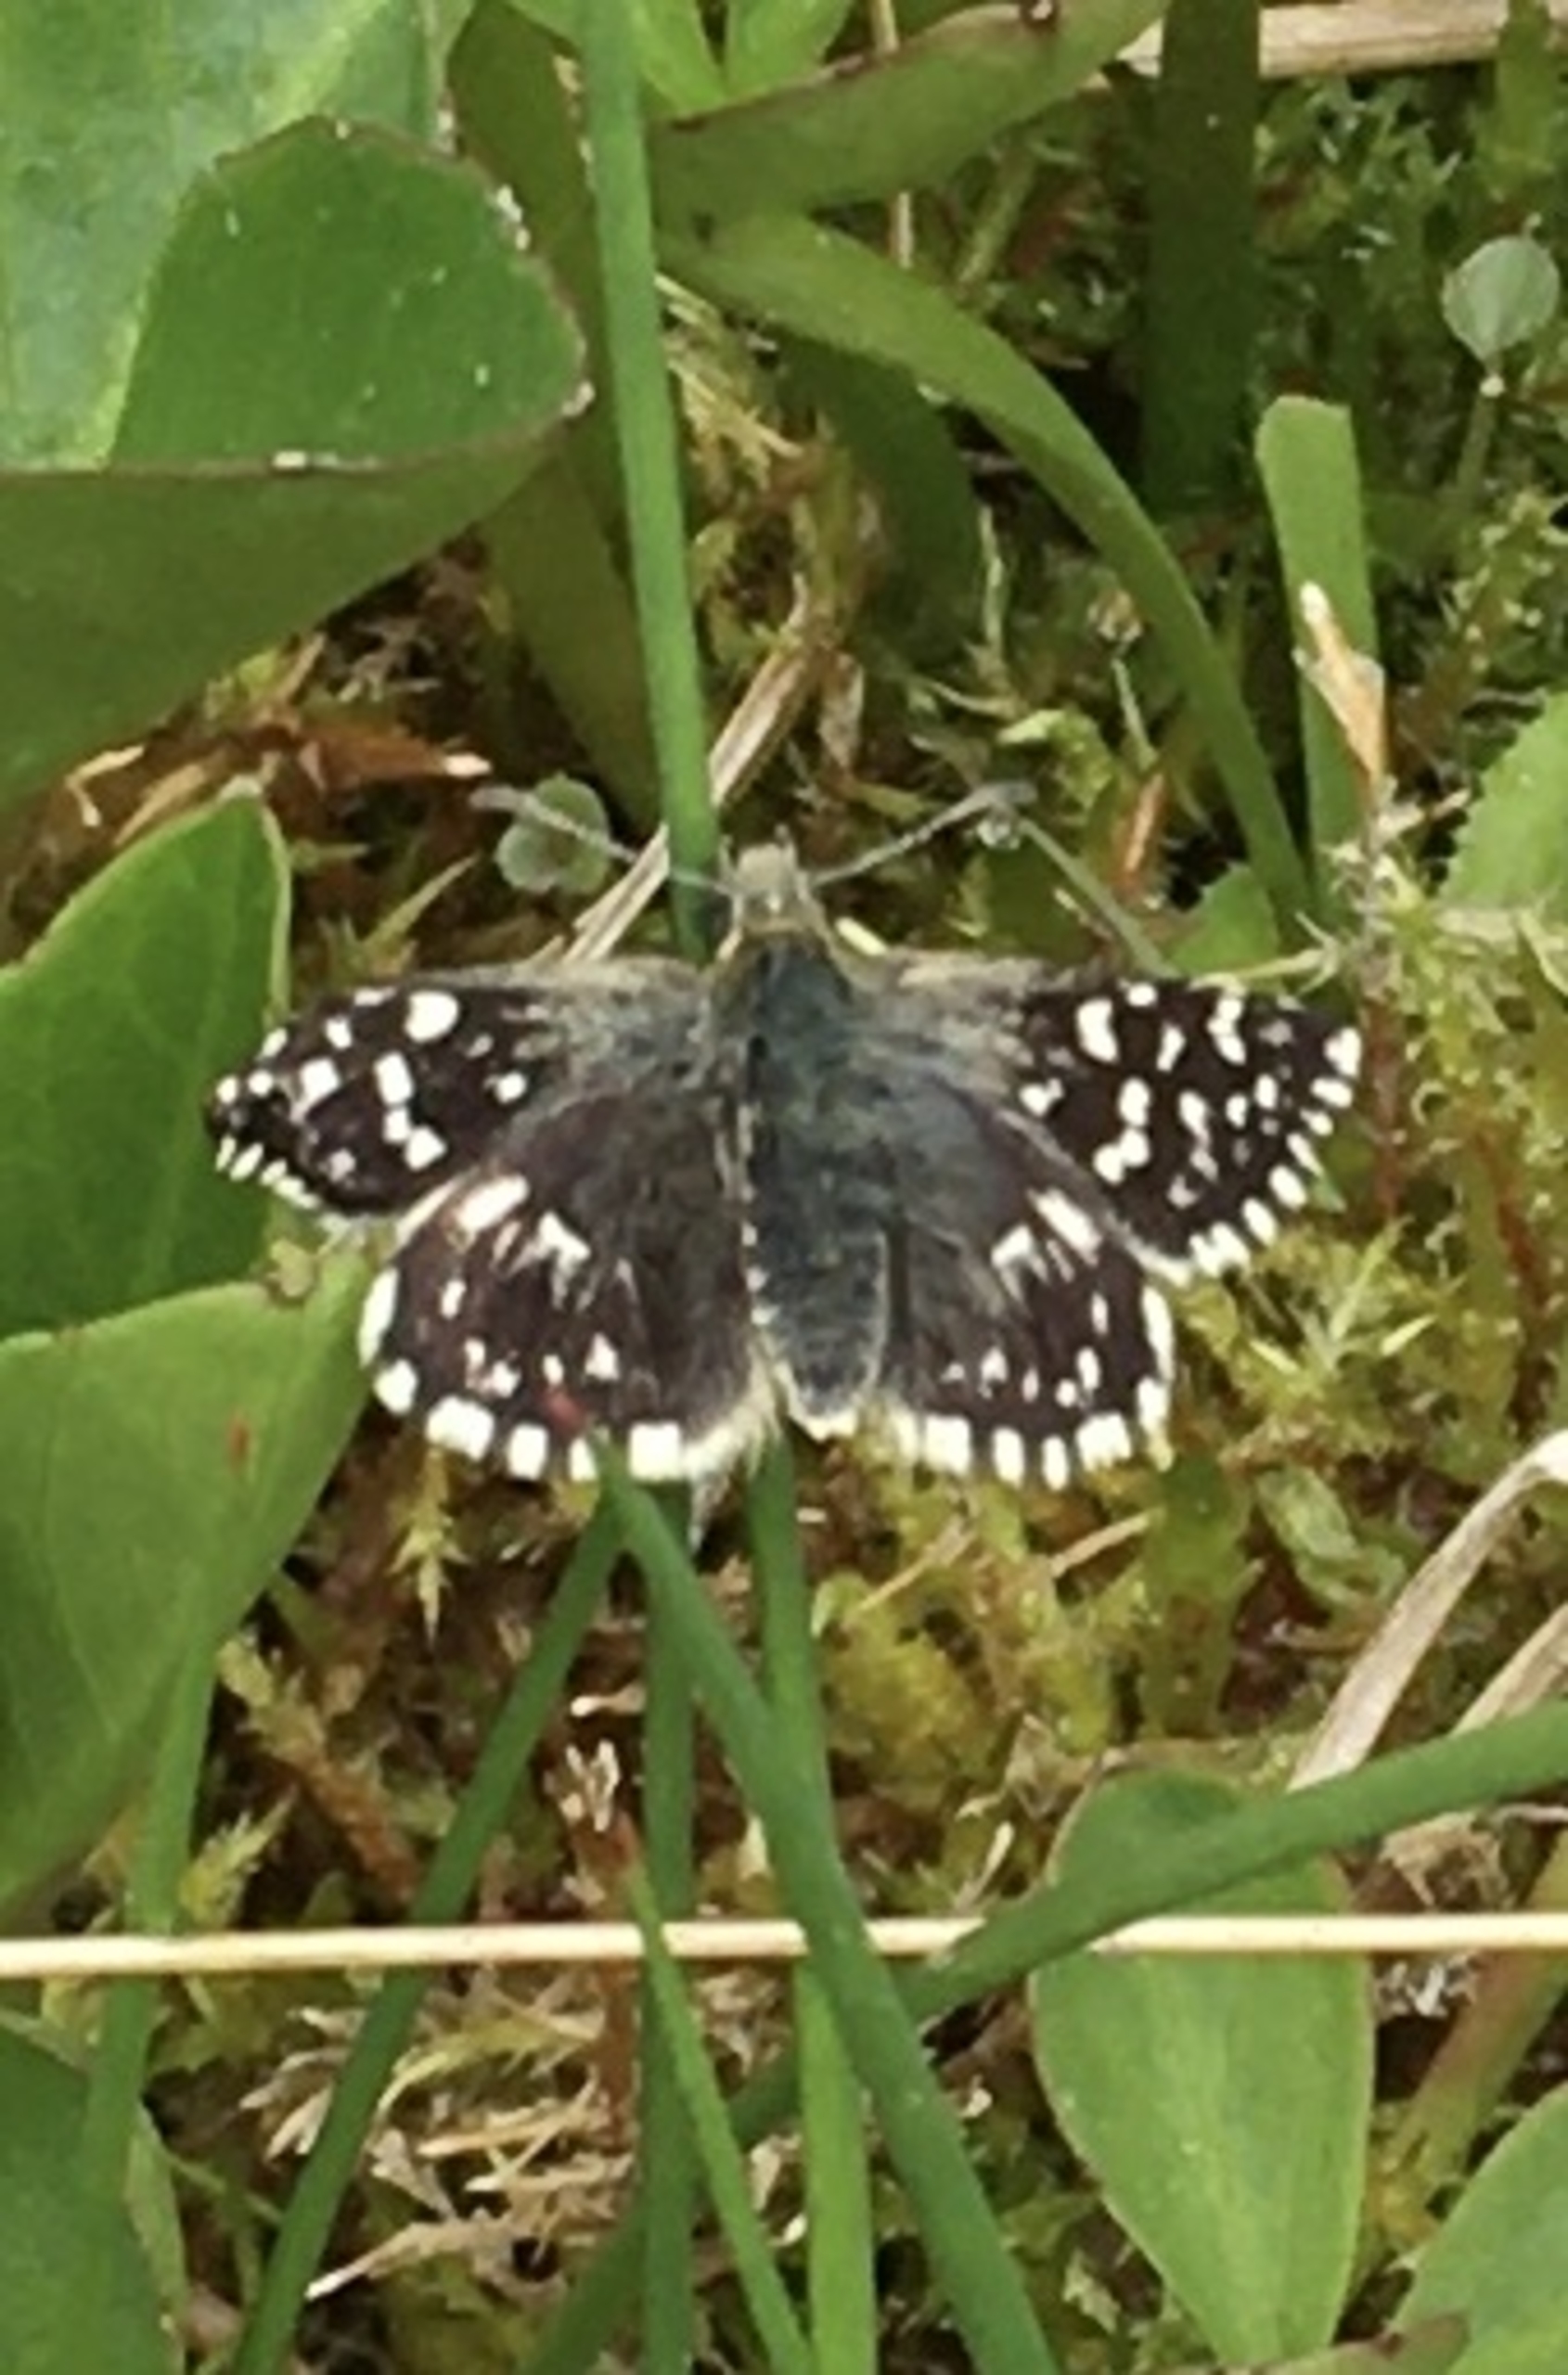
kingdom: Animalia
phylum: Arthropoda
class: Insecta
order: Lepidoptera
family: Hesperiidae
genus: Pyrgus
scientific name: Pyrgus malvae
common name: Spættet bredpande
